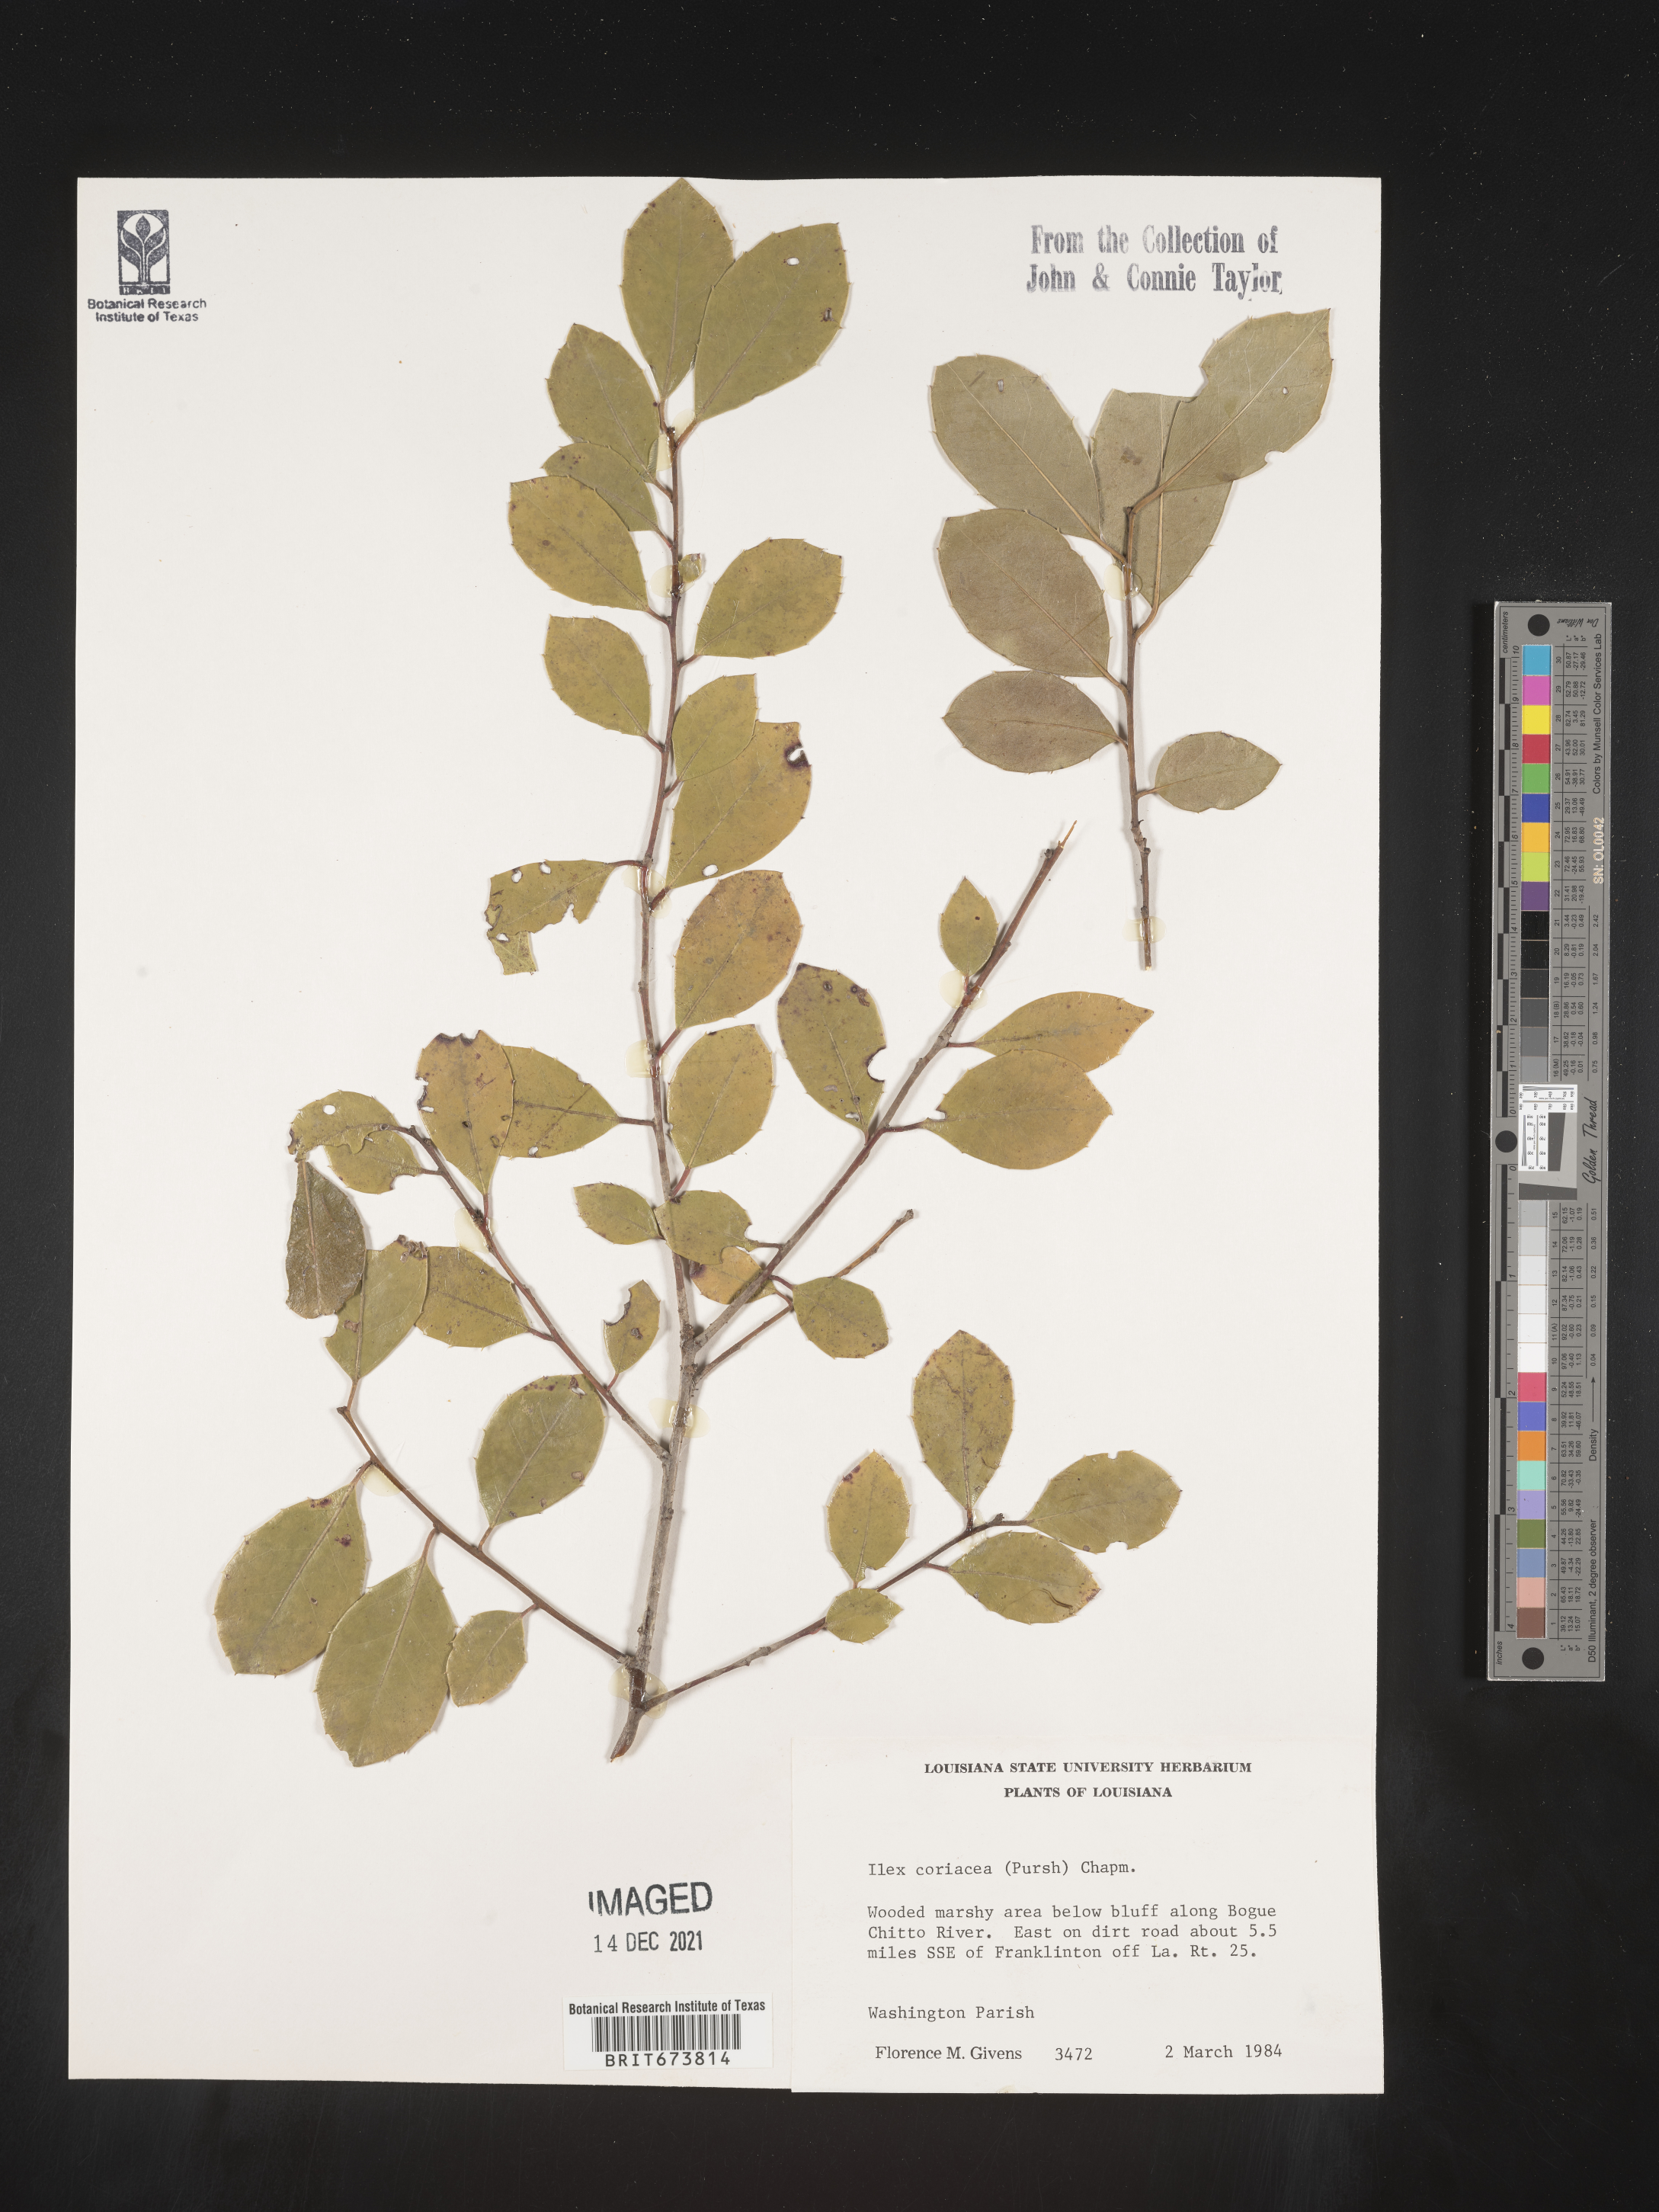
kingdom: Plantae
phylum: Tracheophyta
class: Magnoliopsida
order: Aquifoliales
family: Aquifoliaceae
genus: Ilex
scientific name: Ilex coriacea
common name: Sweet gallberry
